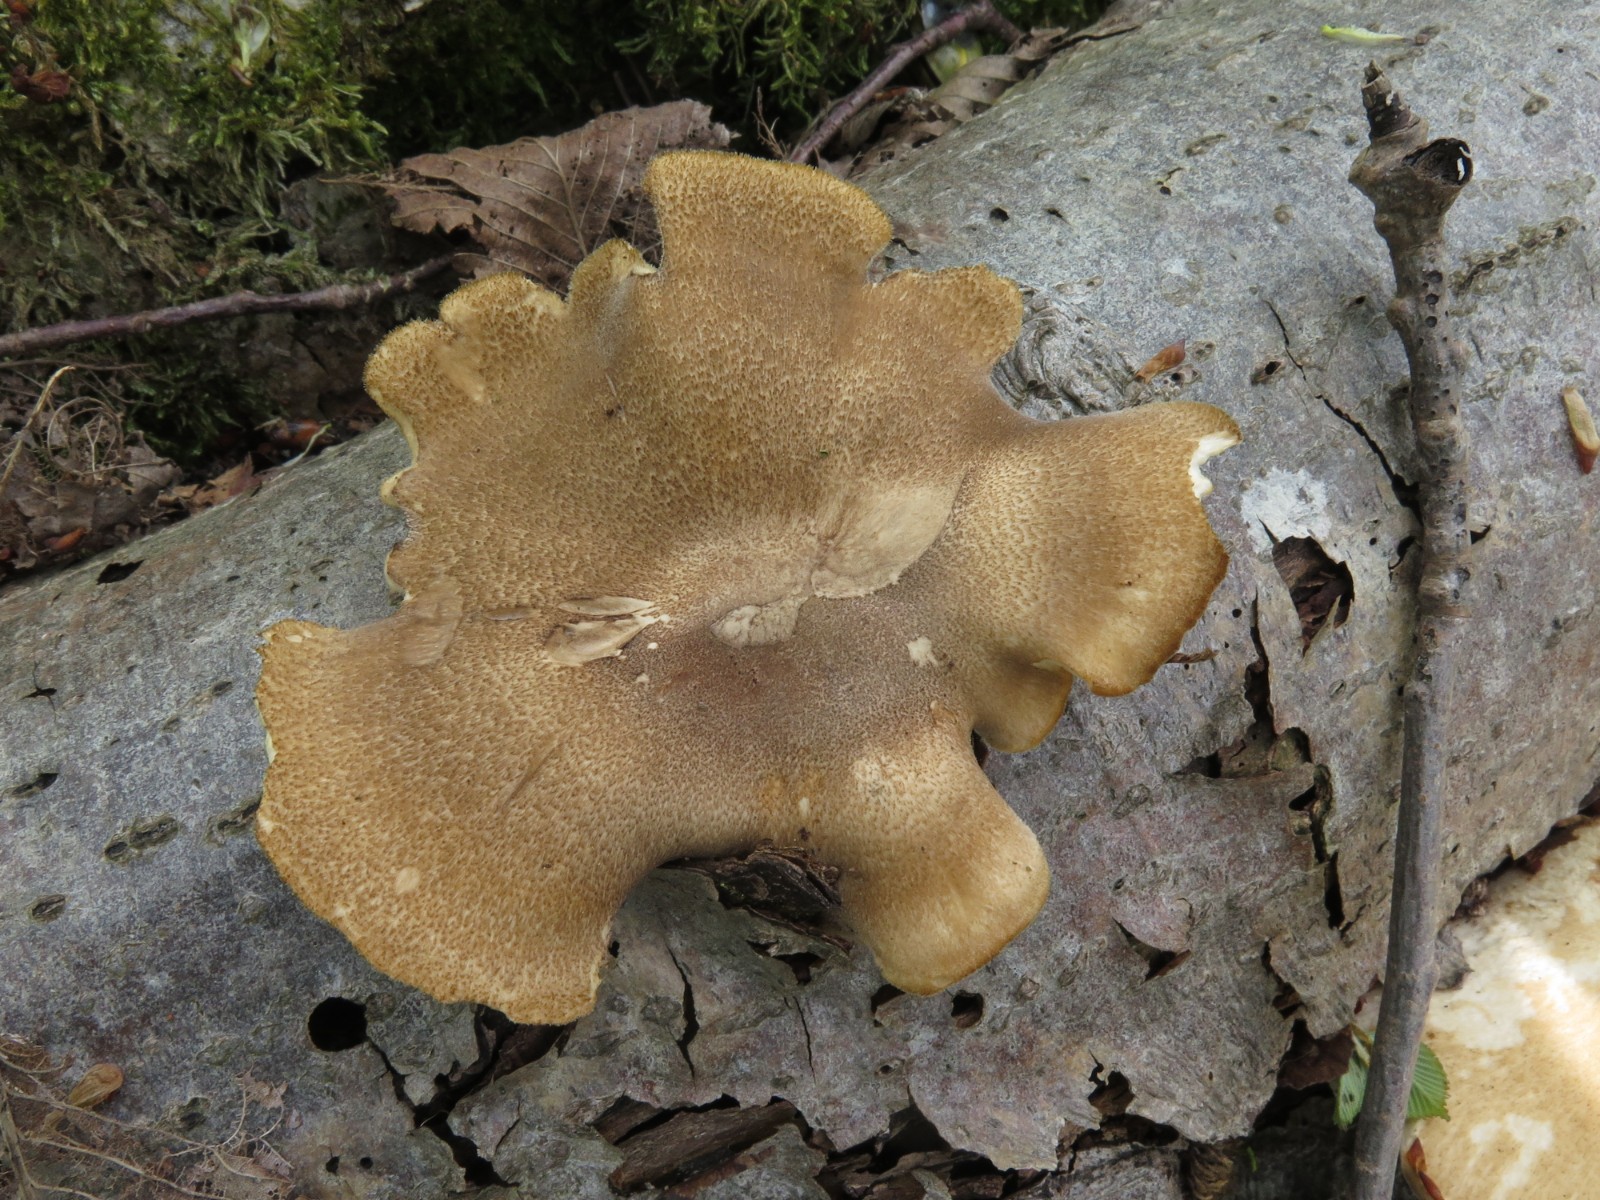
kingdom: Fungi
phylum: Basidiomycota
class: Agaricomycetes
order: Polyporales
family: Polyporaceae
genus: Lentinus
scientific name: Lentinus substrictus
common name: forårs-stilkporesvamp
